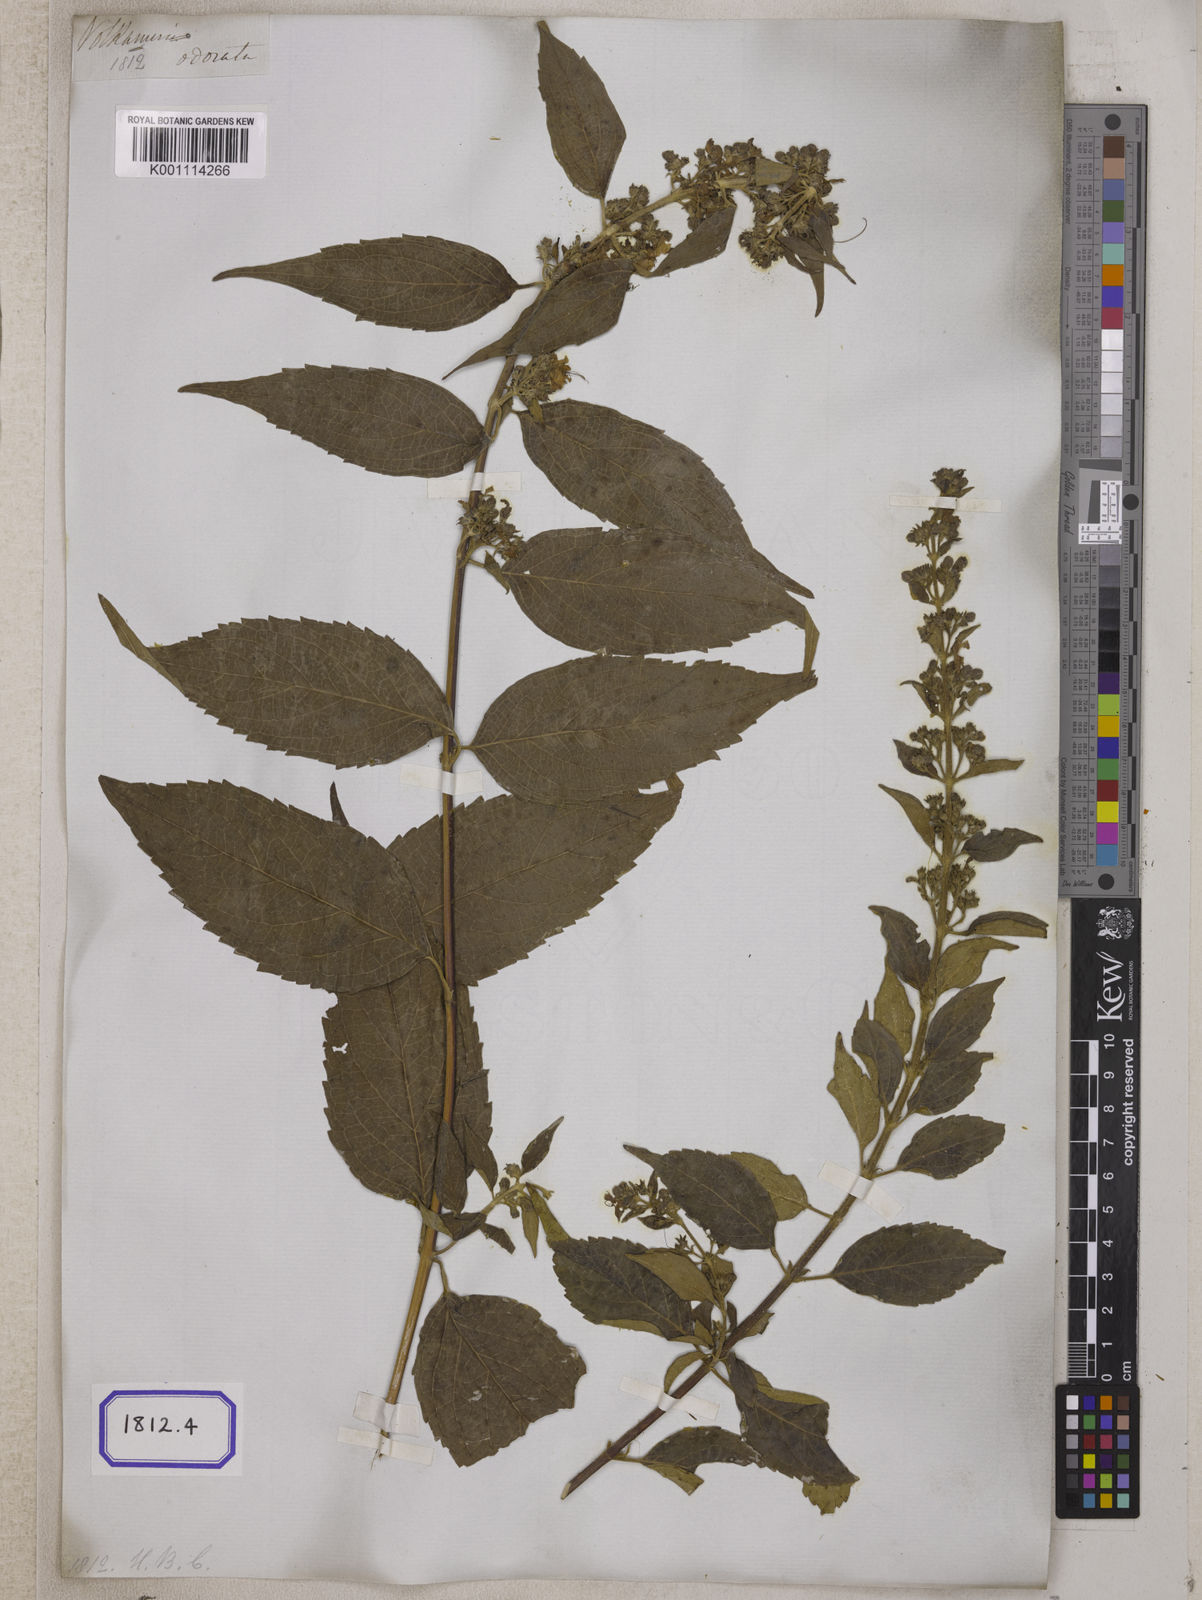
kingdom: Plantae
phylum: Tracheophyta
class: Magnoliopsida
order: Lamiales
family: Lamiaceae
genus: Clerodendrum
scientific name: Clerodendrum
